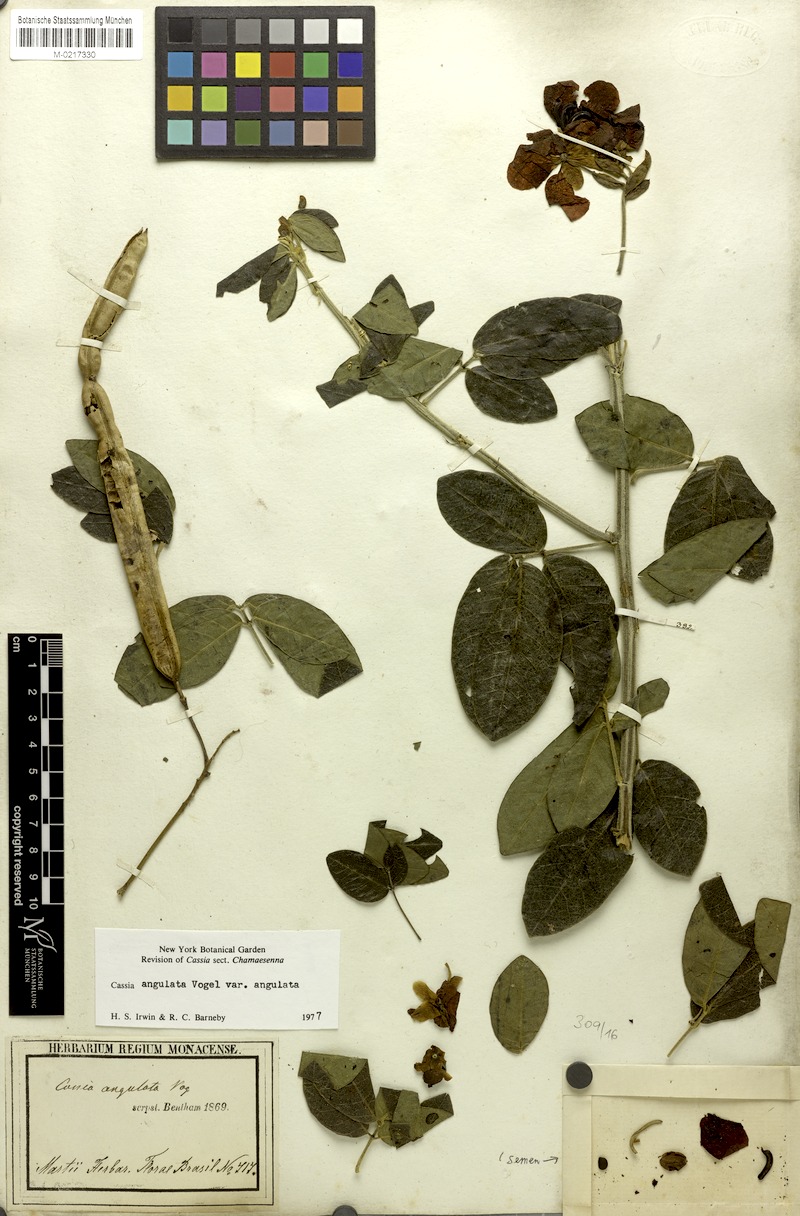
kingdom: Plantae
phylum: Tracheophyta
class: Magnoliopsida
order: Fabales
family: Fabaceae
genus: Senna
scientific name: Senna angulata
